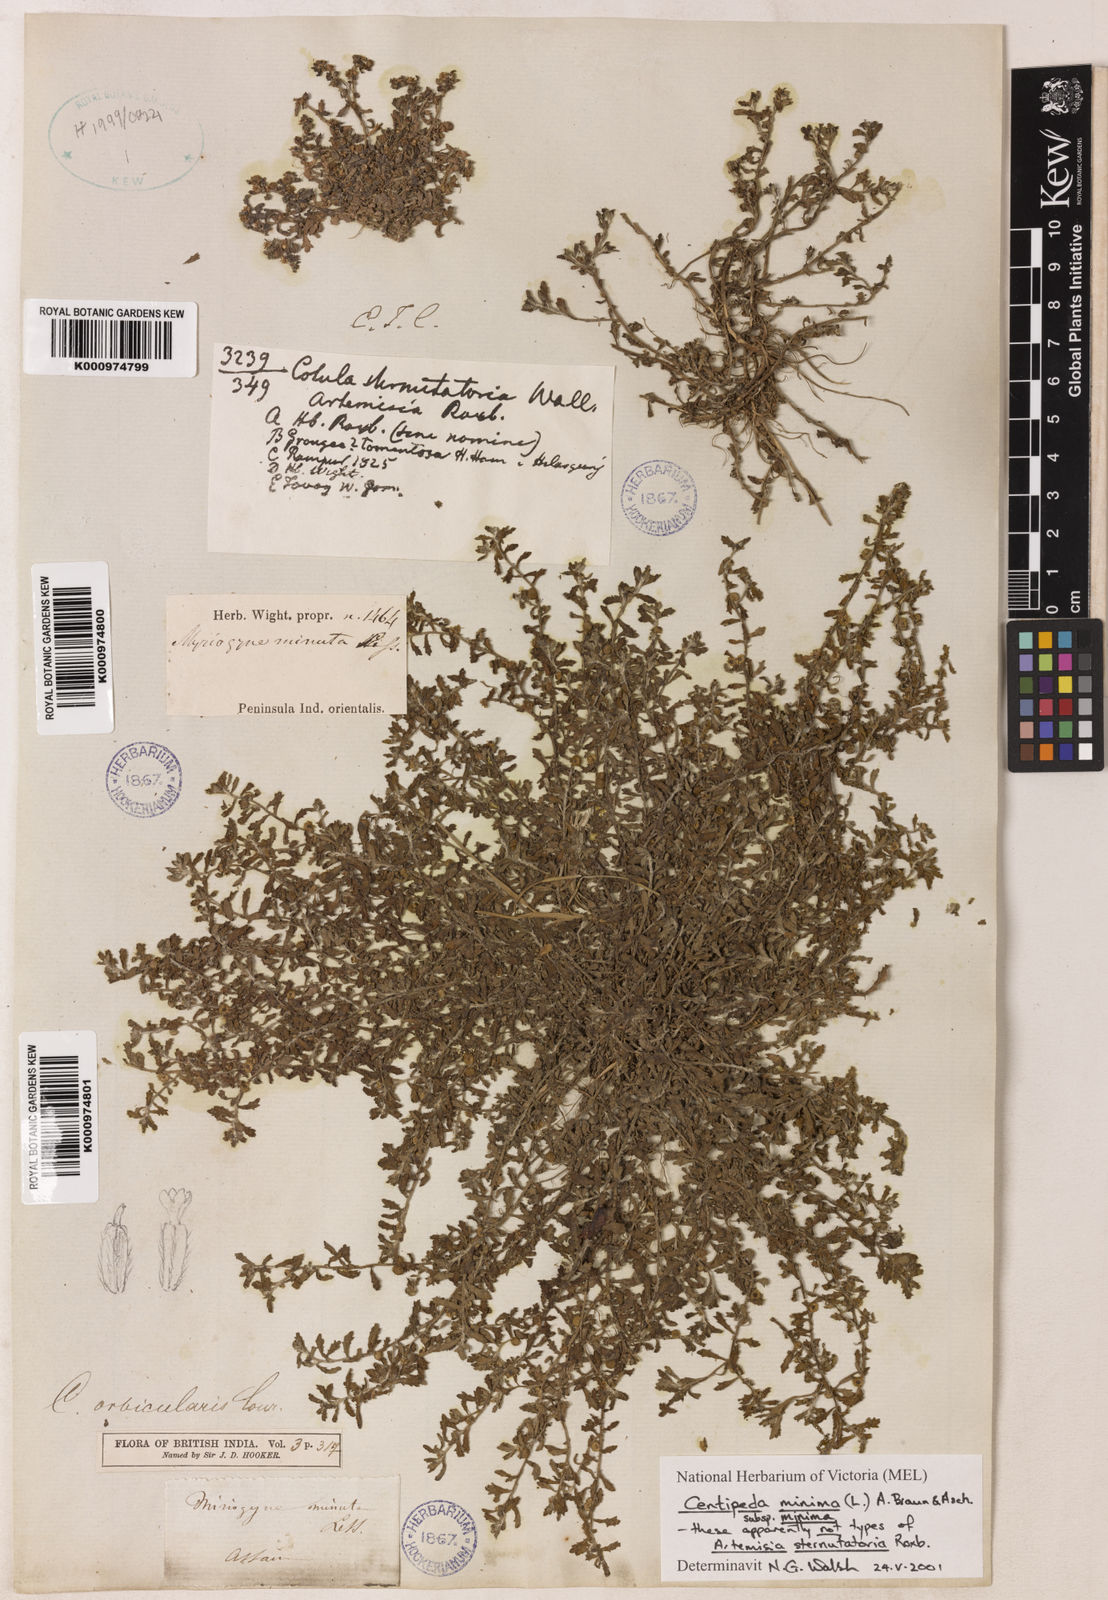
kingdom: Plantae
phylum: Tracheophyta
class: Magnoliopsida
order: Asterales
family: Asteraceae
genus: Centipeda
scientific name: Centipeda minima
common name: Spreading sneezeweed
